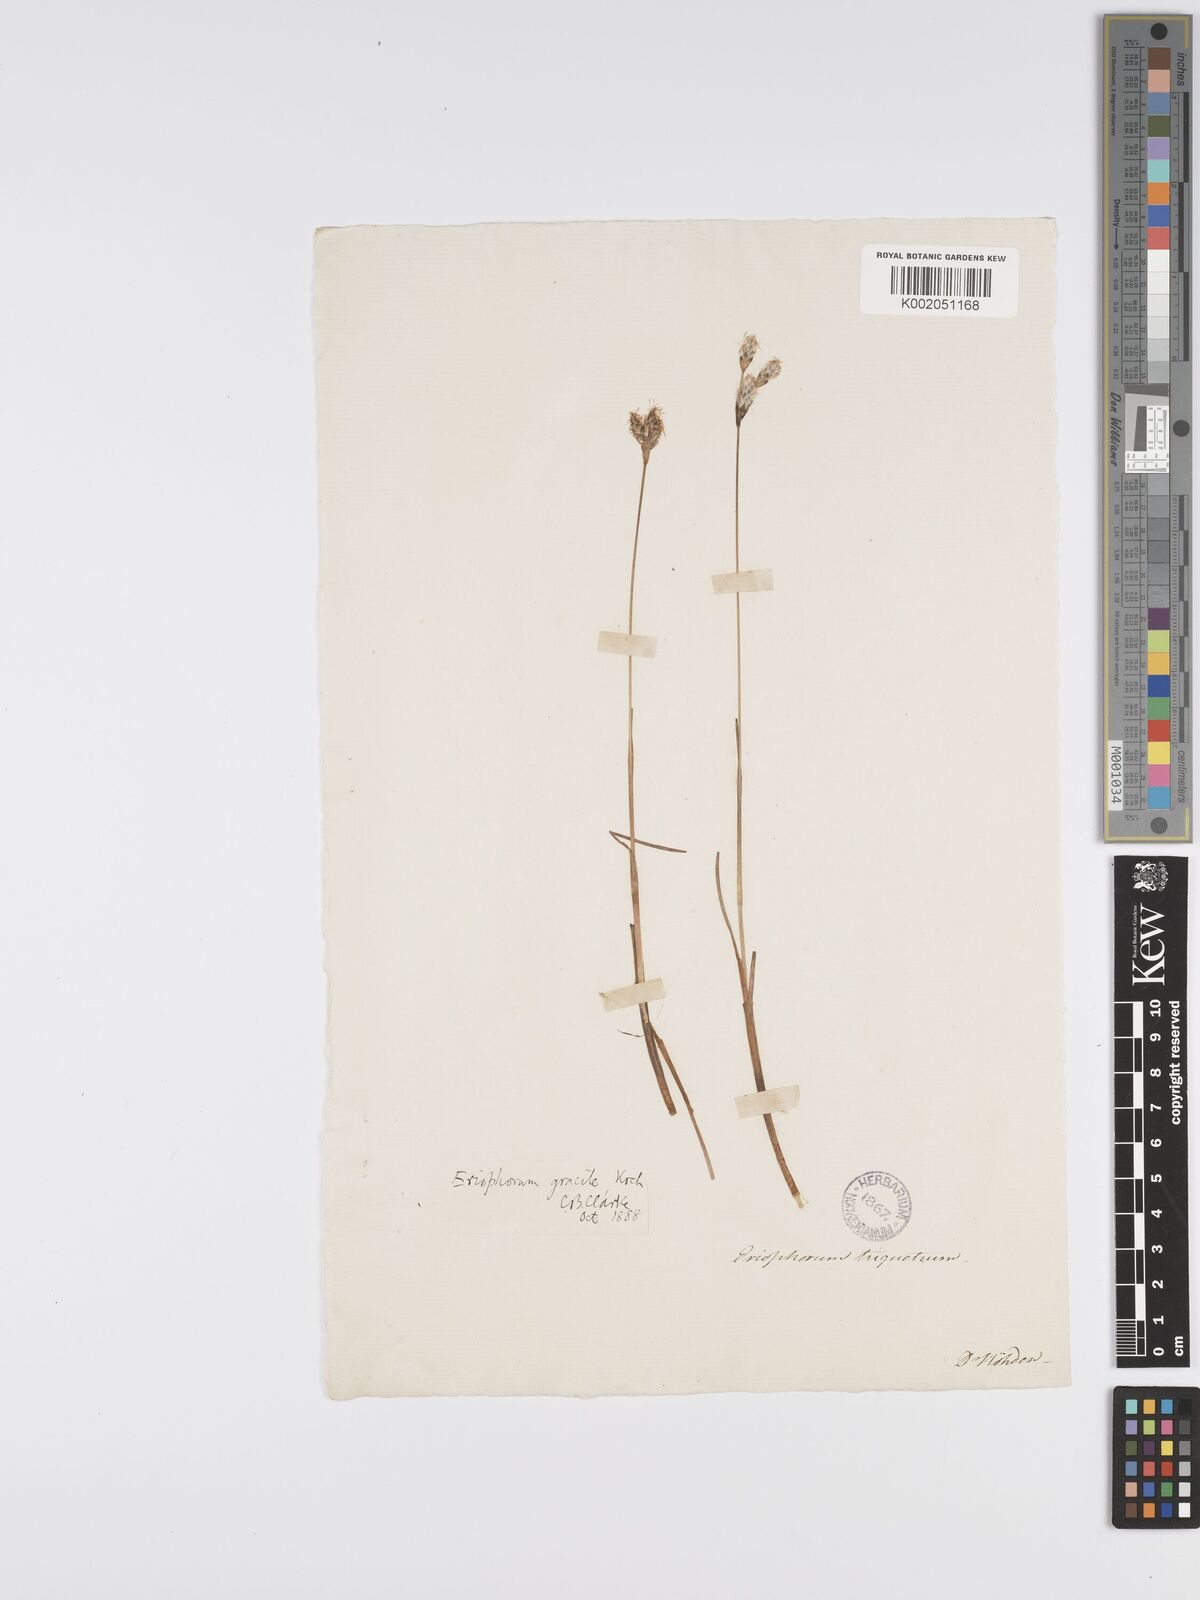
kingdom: Plantae
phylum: Tracheophyta
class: Liliopsida
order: Poales
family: Cyperaceae
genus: Eriophorum
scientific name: Eriophorum gracile
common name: Slender cottongrass
